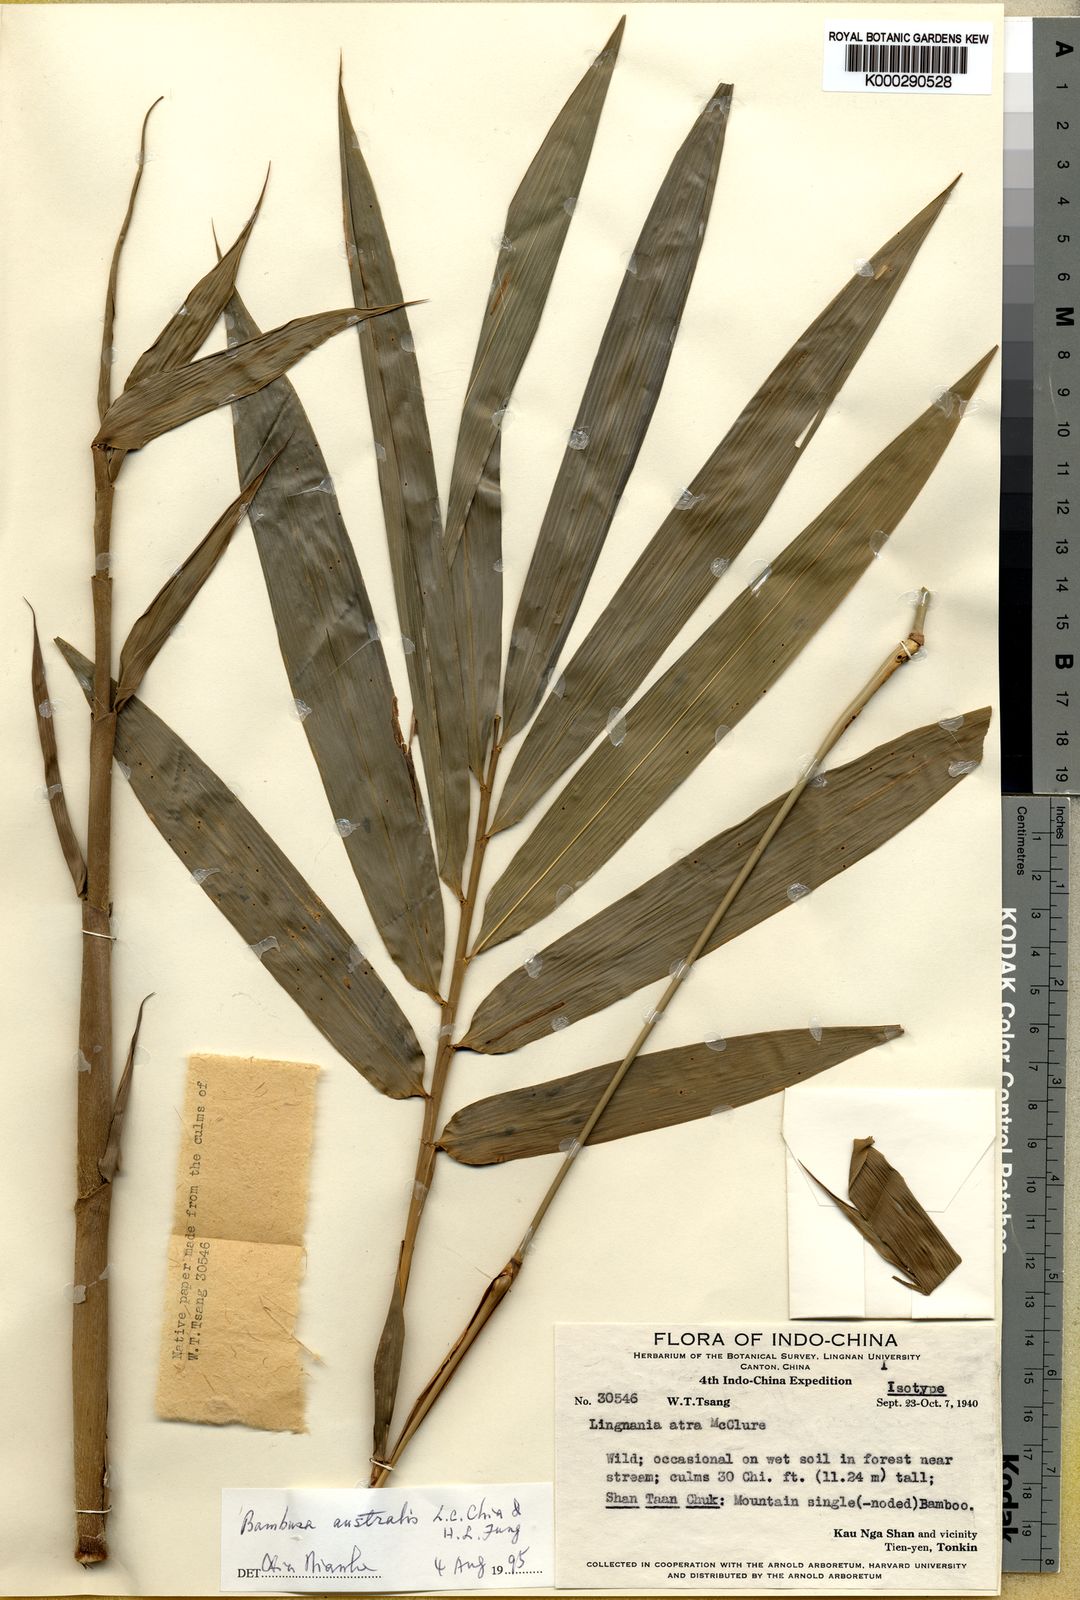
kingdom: Plantae
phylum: Tracheophyta
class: Liliopsida
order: Poales
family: Poaceae
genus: Bambusa
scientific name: Bambusa australis
